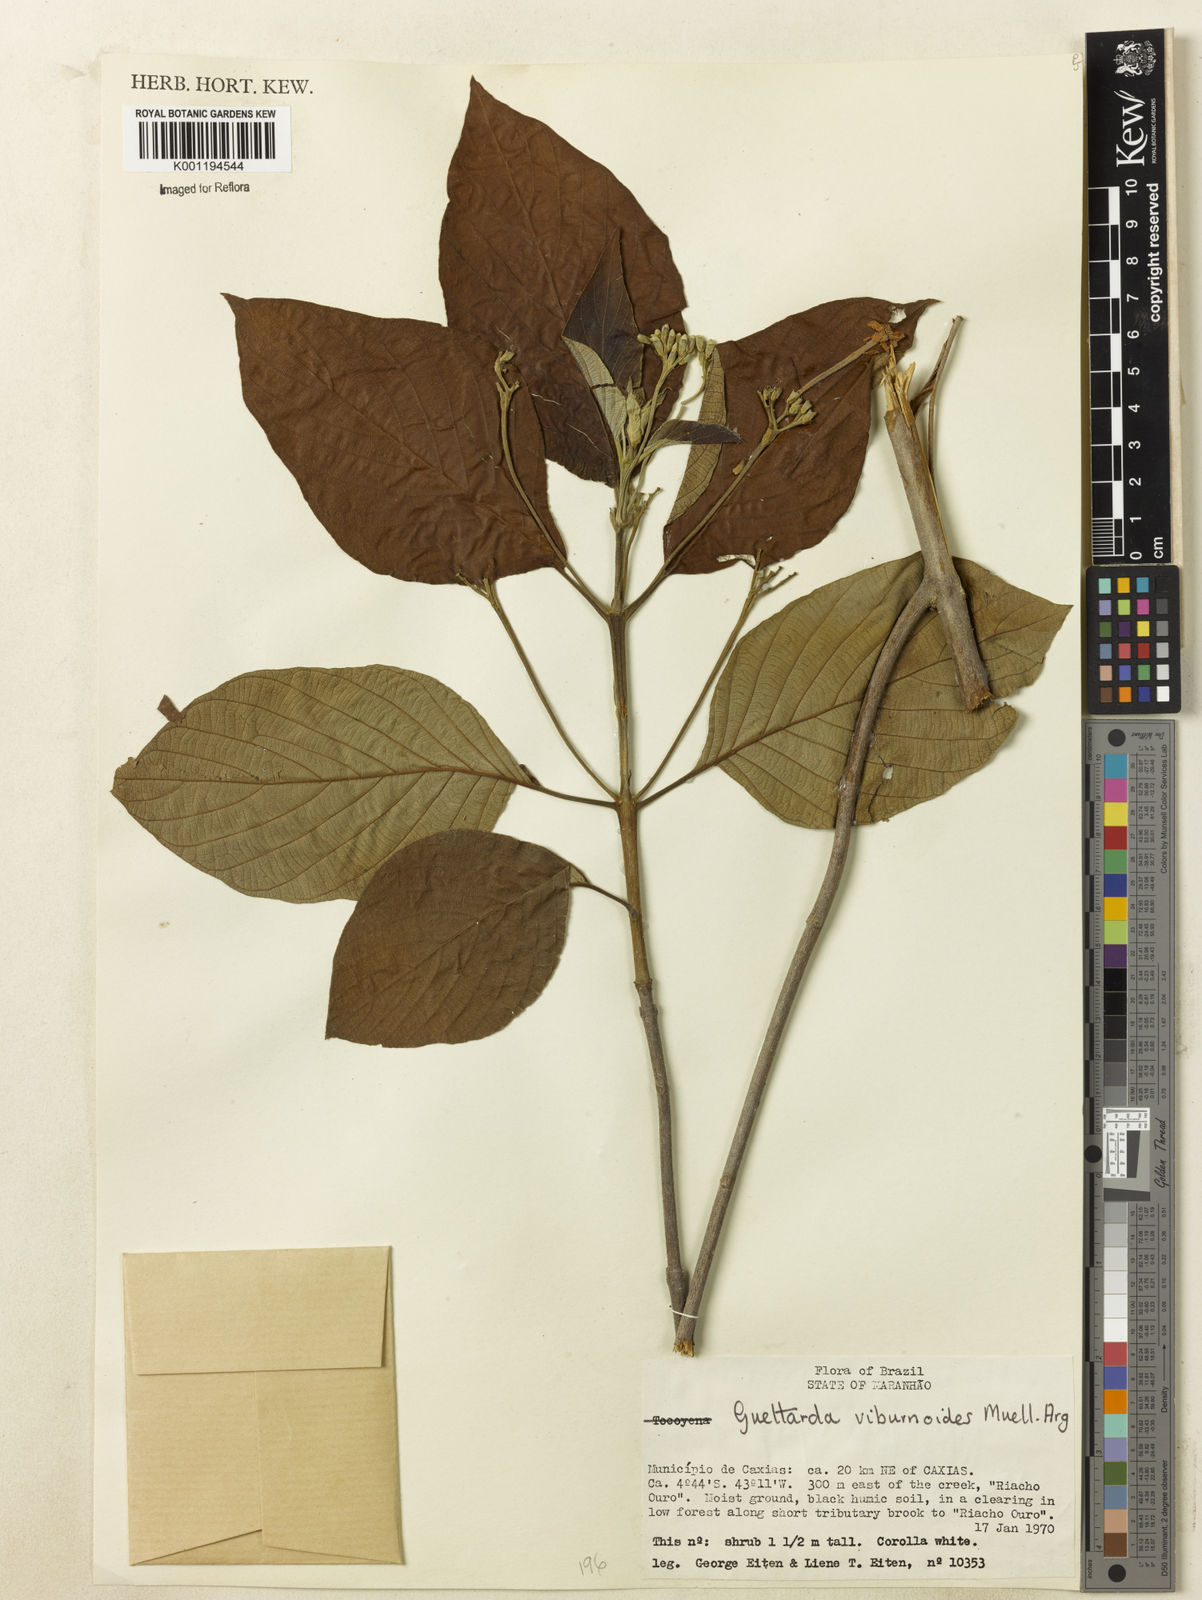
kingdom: Plantae
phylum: Tracheophyta
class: Magnoliopsida
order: Gentianales
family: Rubiaceae
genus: Guettarda
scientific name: Guettarda viburnoides
